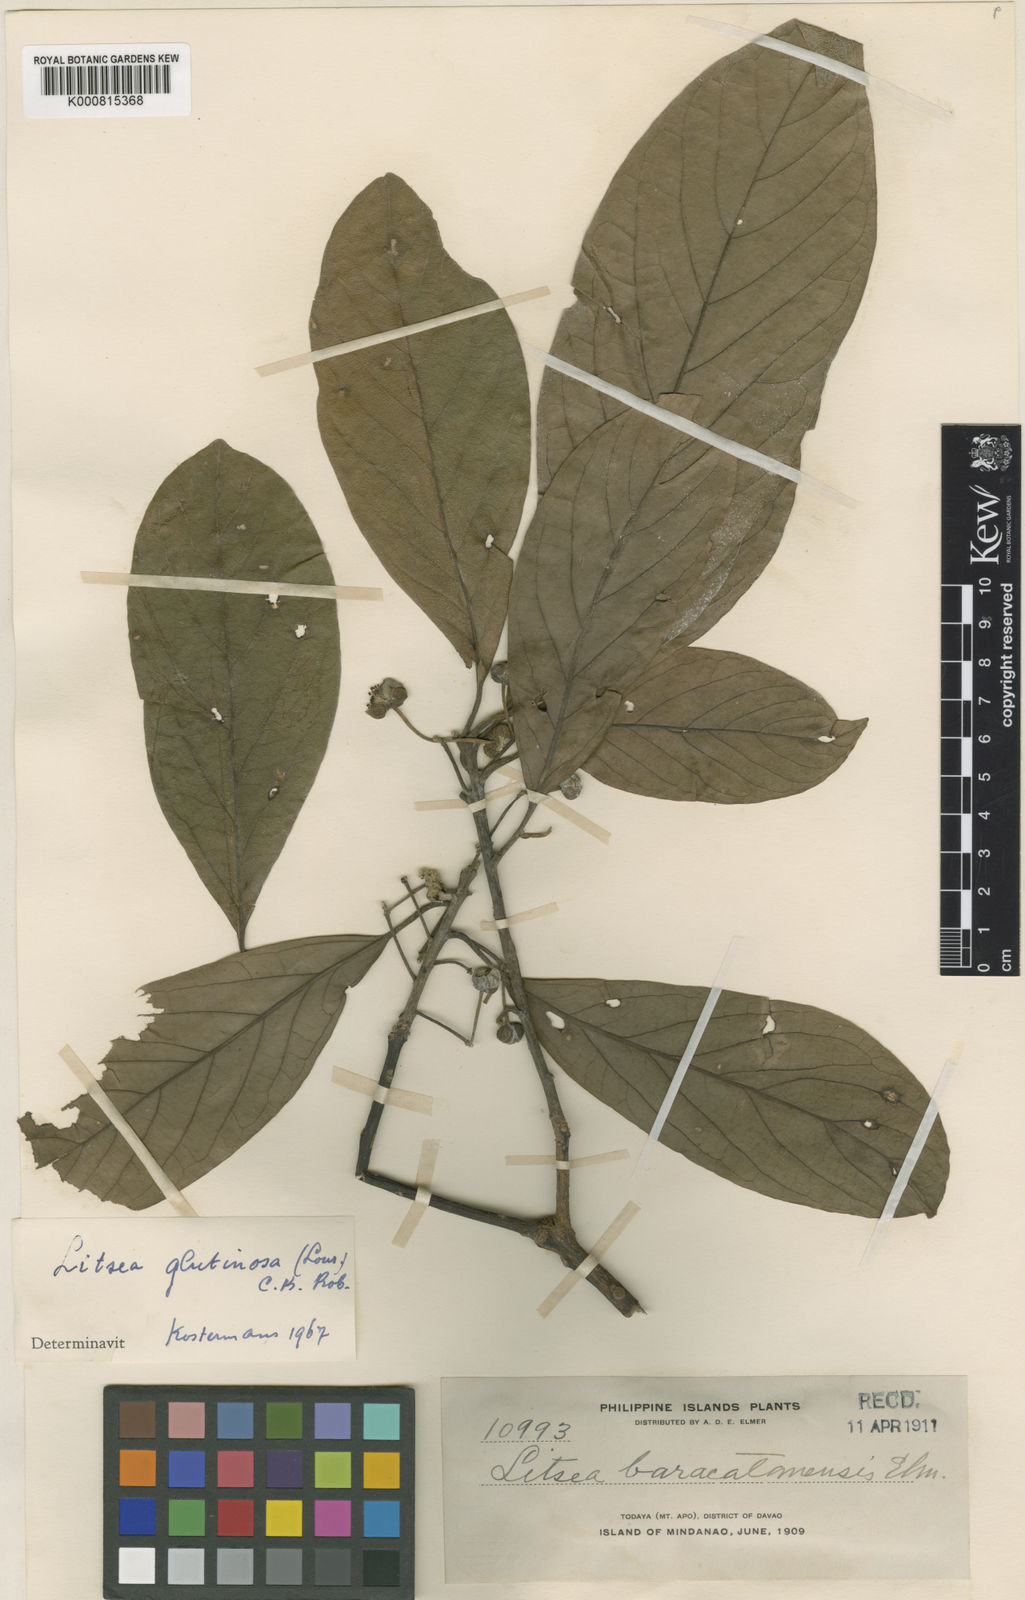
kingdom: Plantae
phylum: Tracheophyta
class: Magnoliopsida
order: Laurales
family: Lauraceae
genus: Litsea
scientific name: Litsea glutinosa
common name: Indian-laurel
